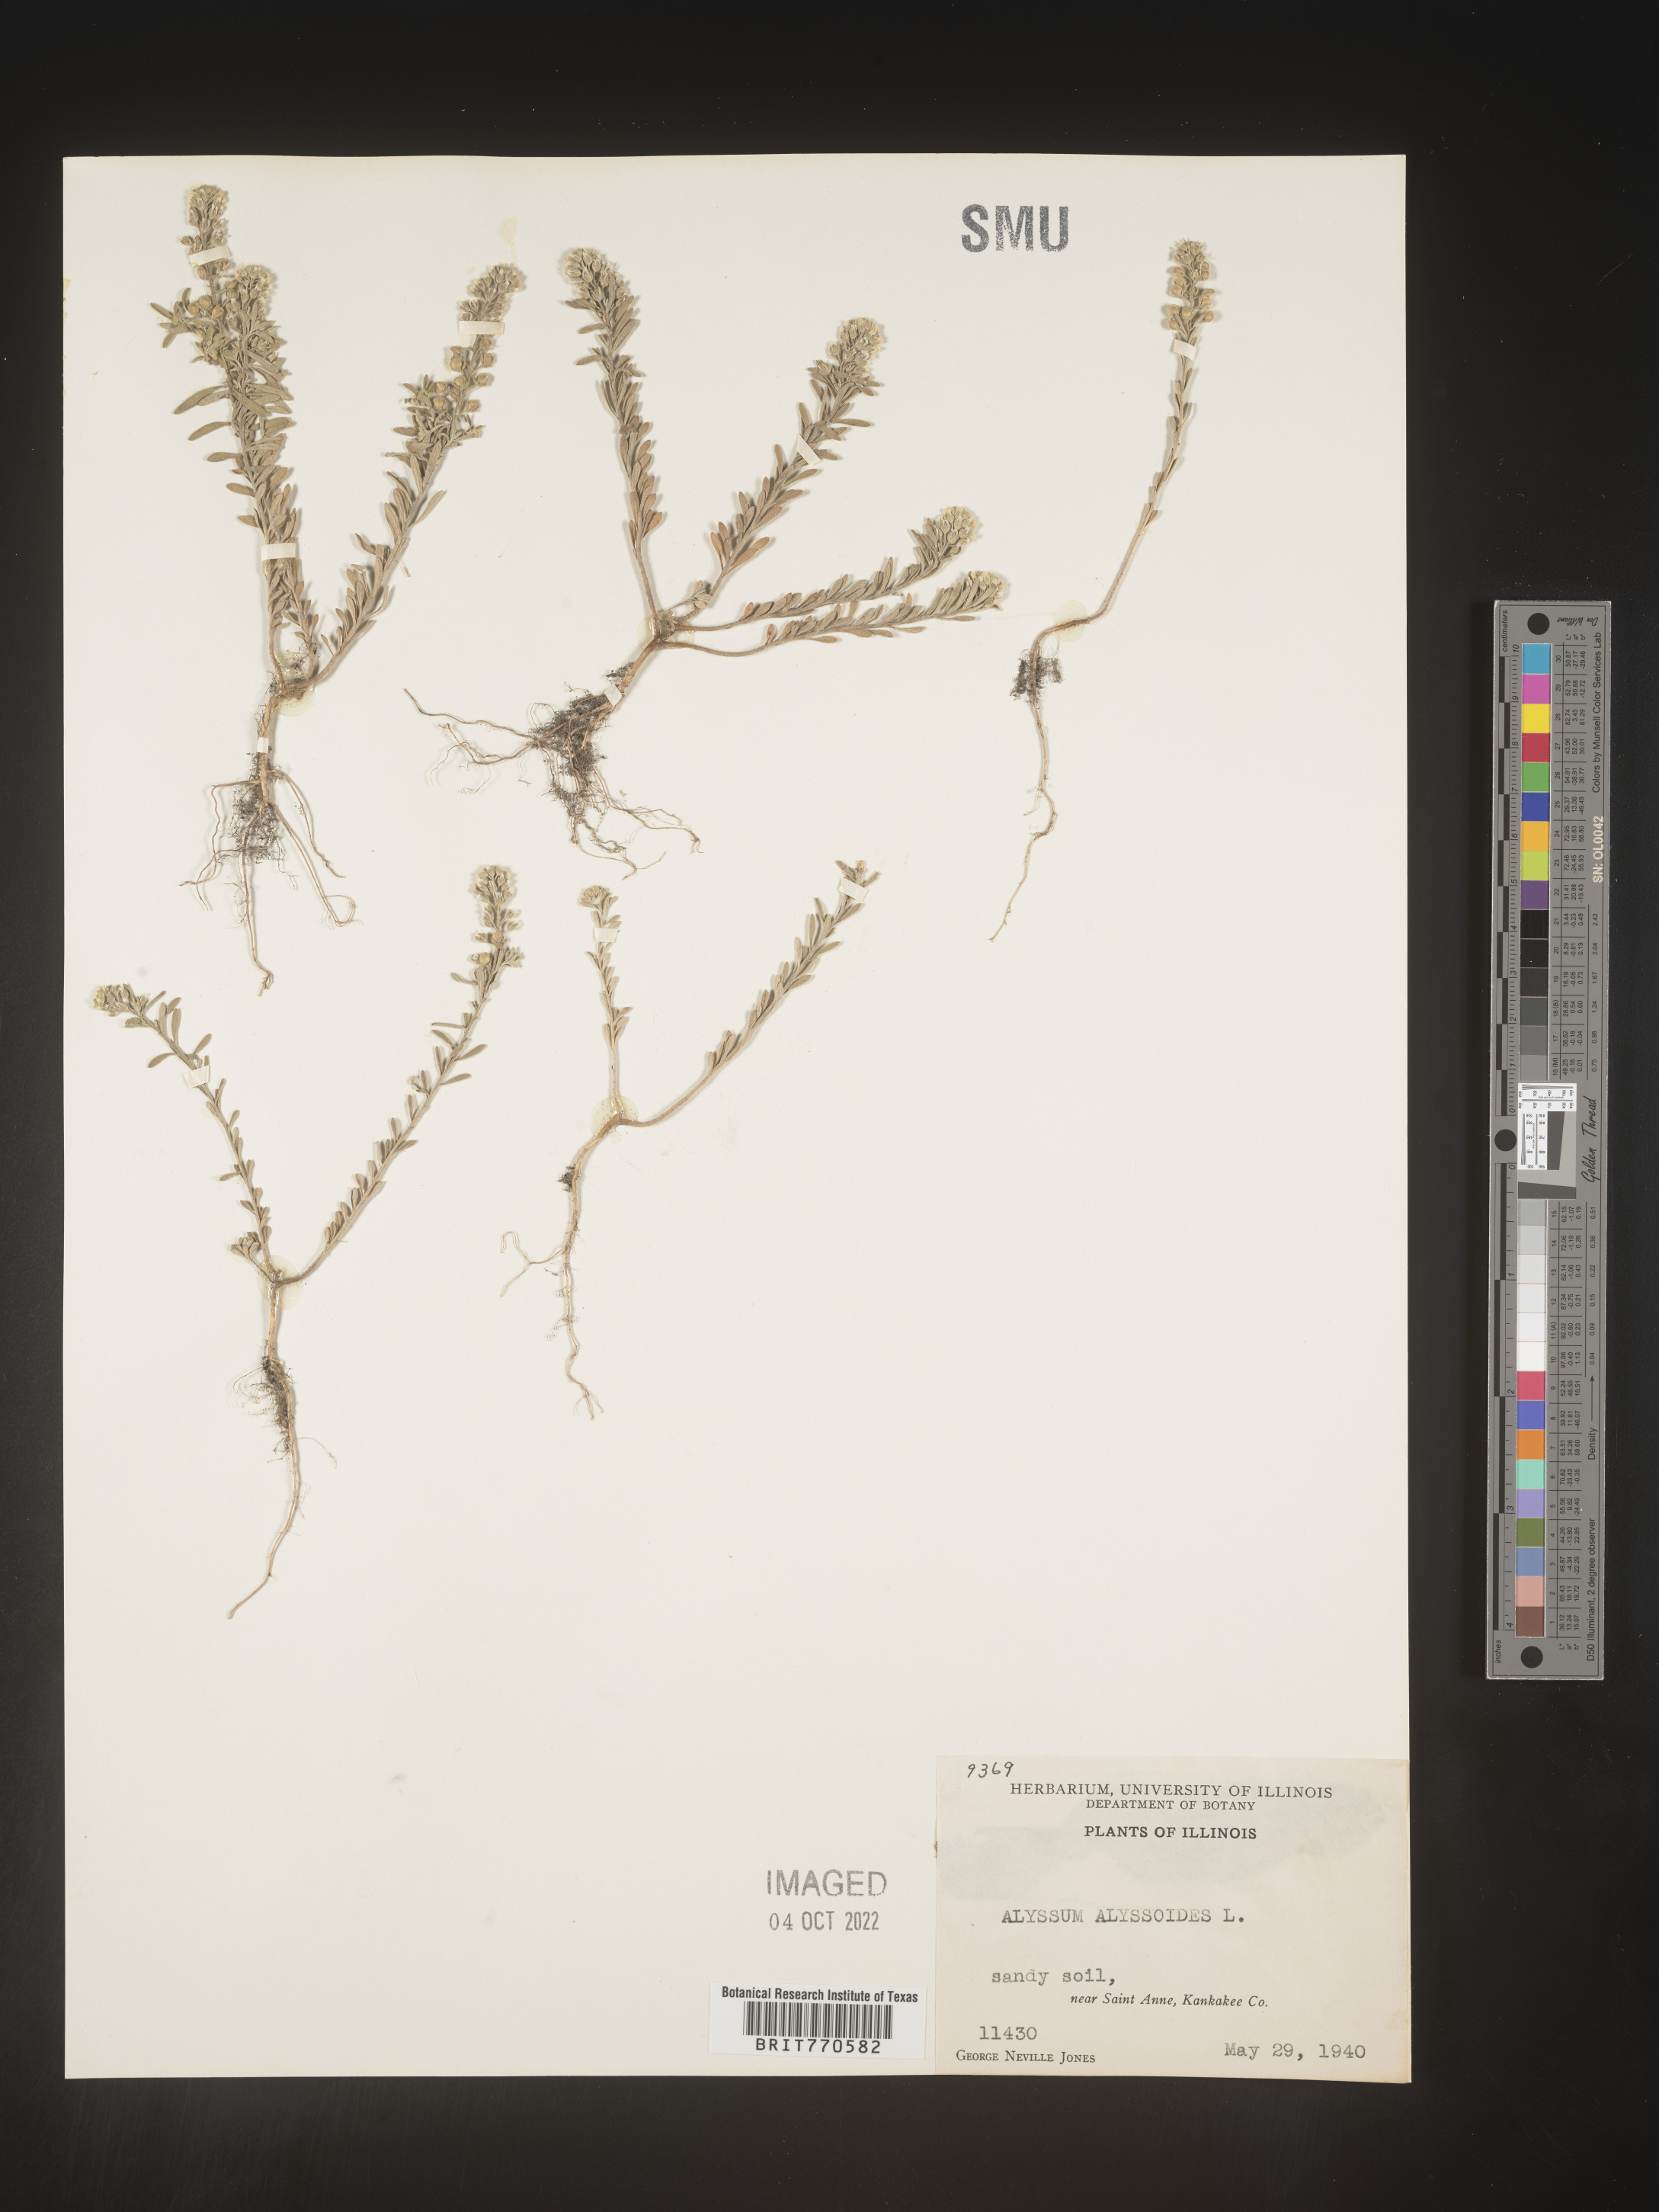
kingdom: Plantae
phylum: Tracheophyta
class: Magnoliopsida
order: Brassicales
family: Brassicaceae
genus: Alyssum
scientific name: Alyssum alyssoides
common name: Small alison
